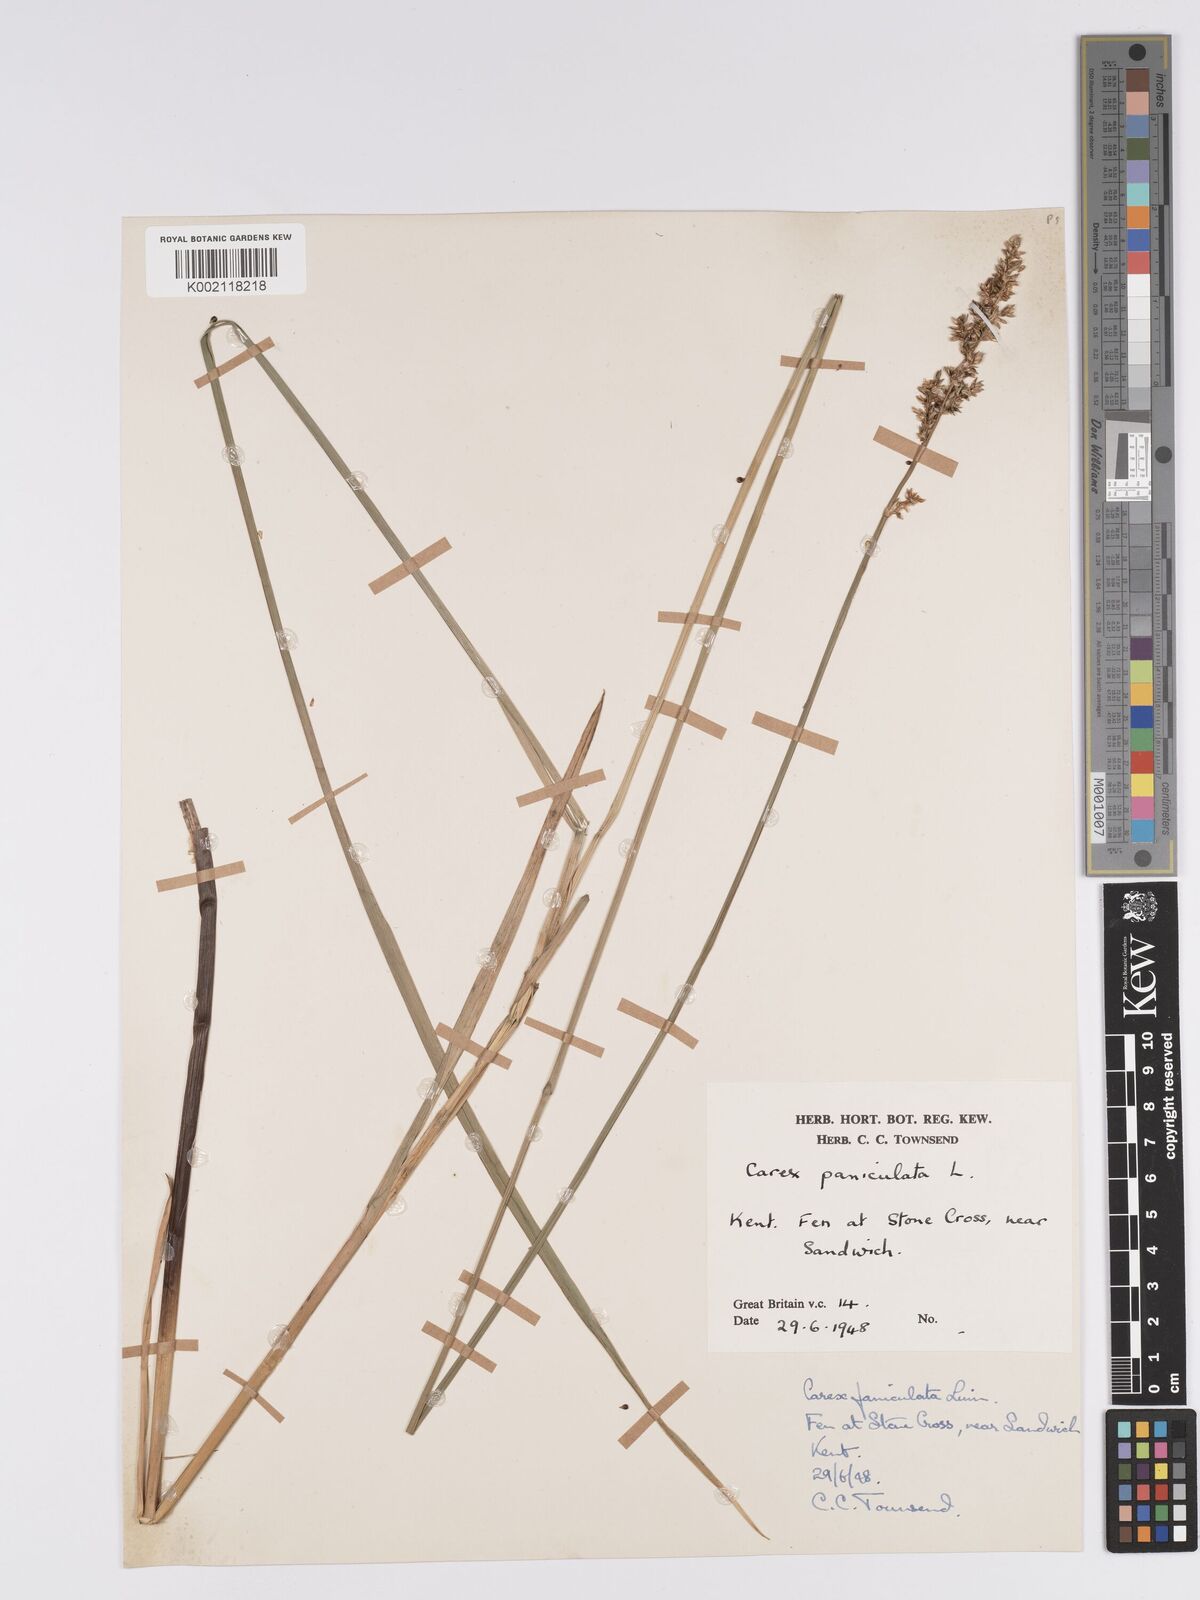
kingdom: Plantae
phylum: Tracheophyta
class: Liliopsida
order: Poales
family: Cyperaceae
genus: Carex
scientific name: Carex paniculata
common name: Greater tussock-sedge
